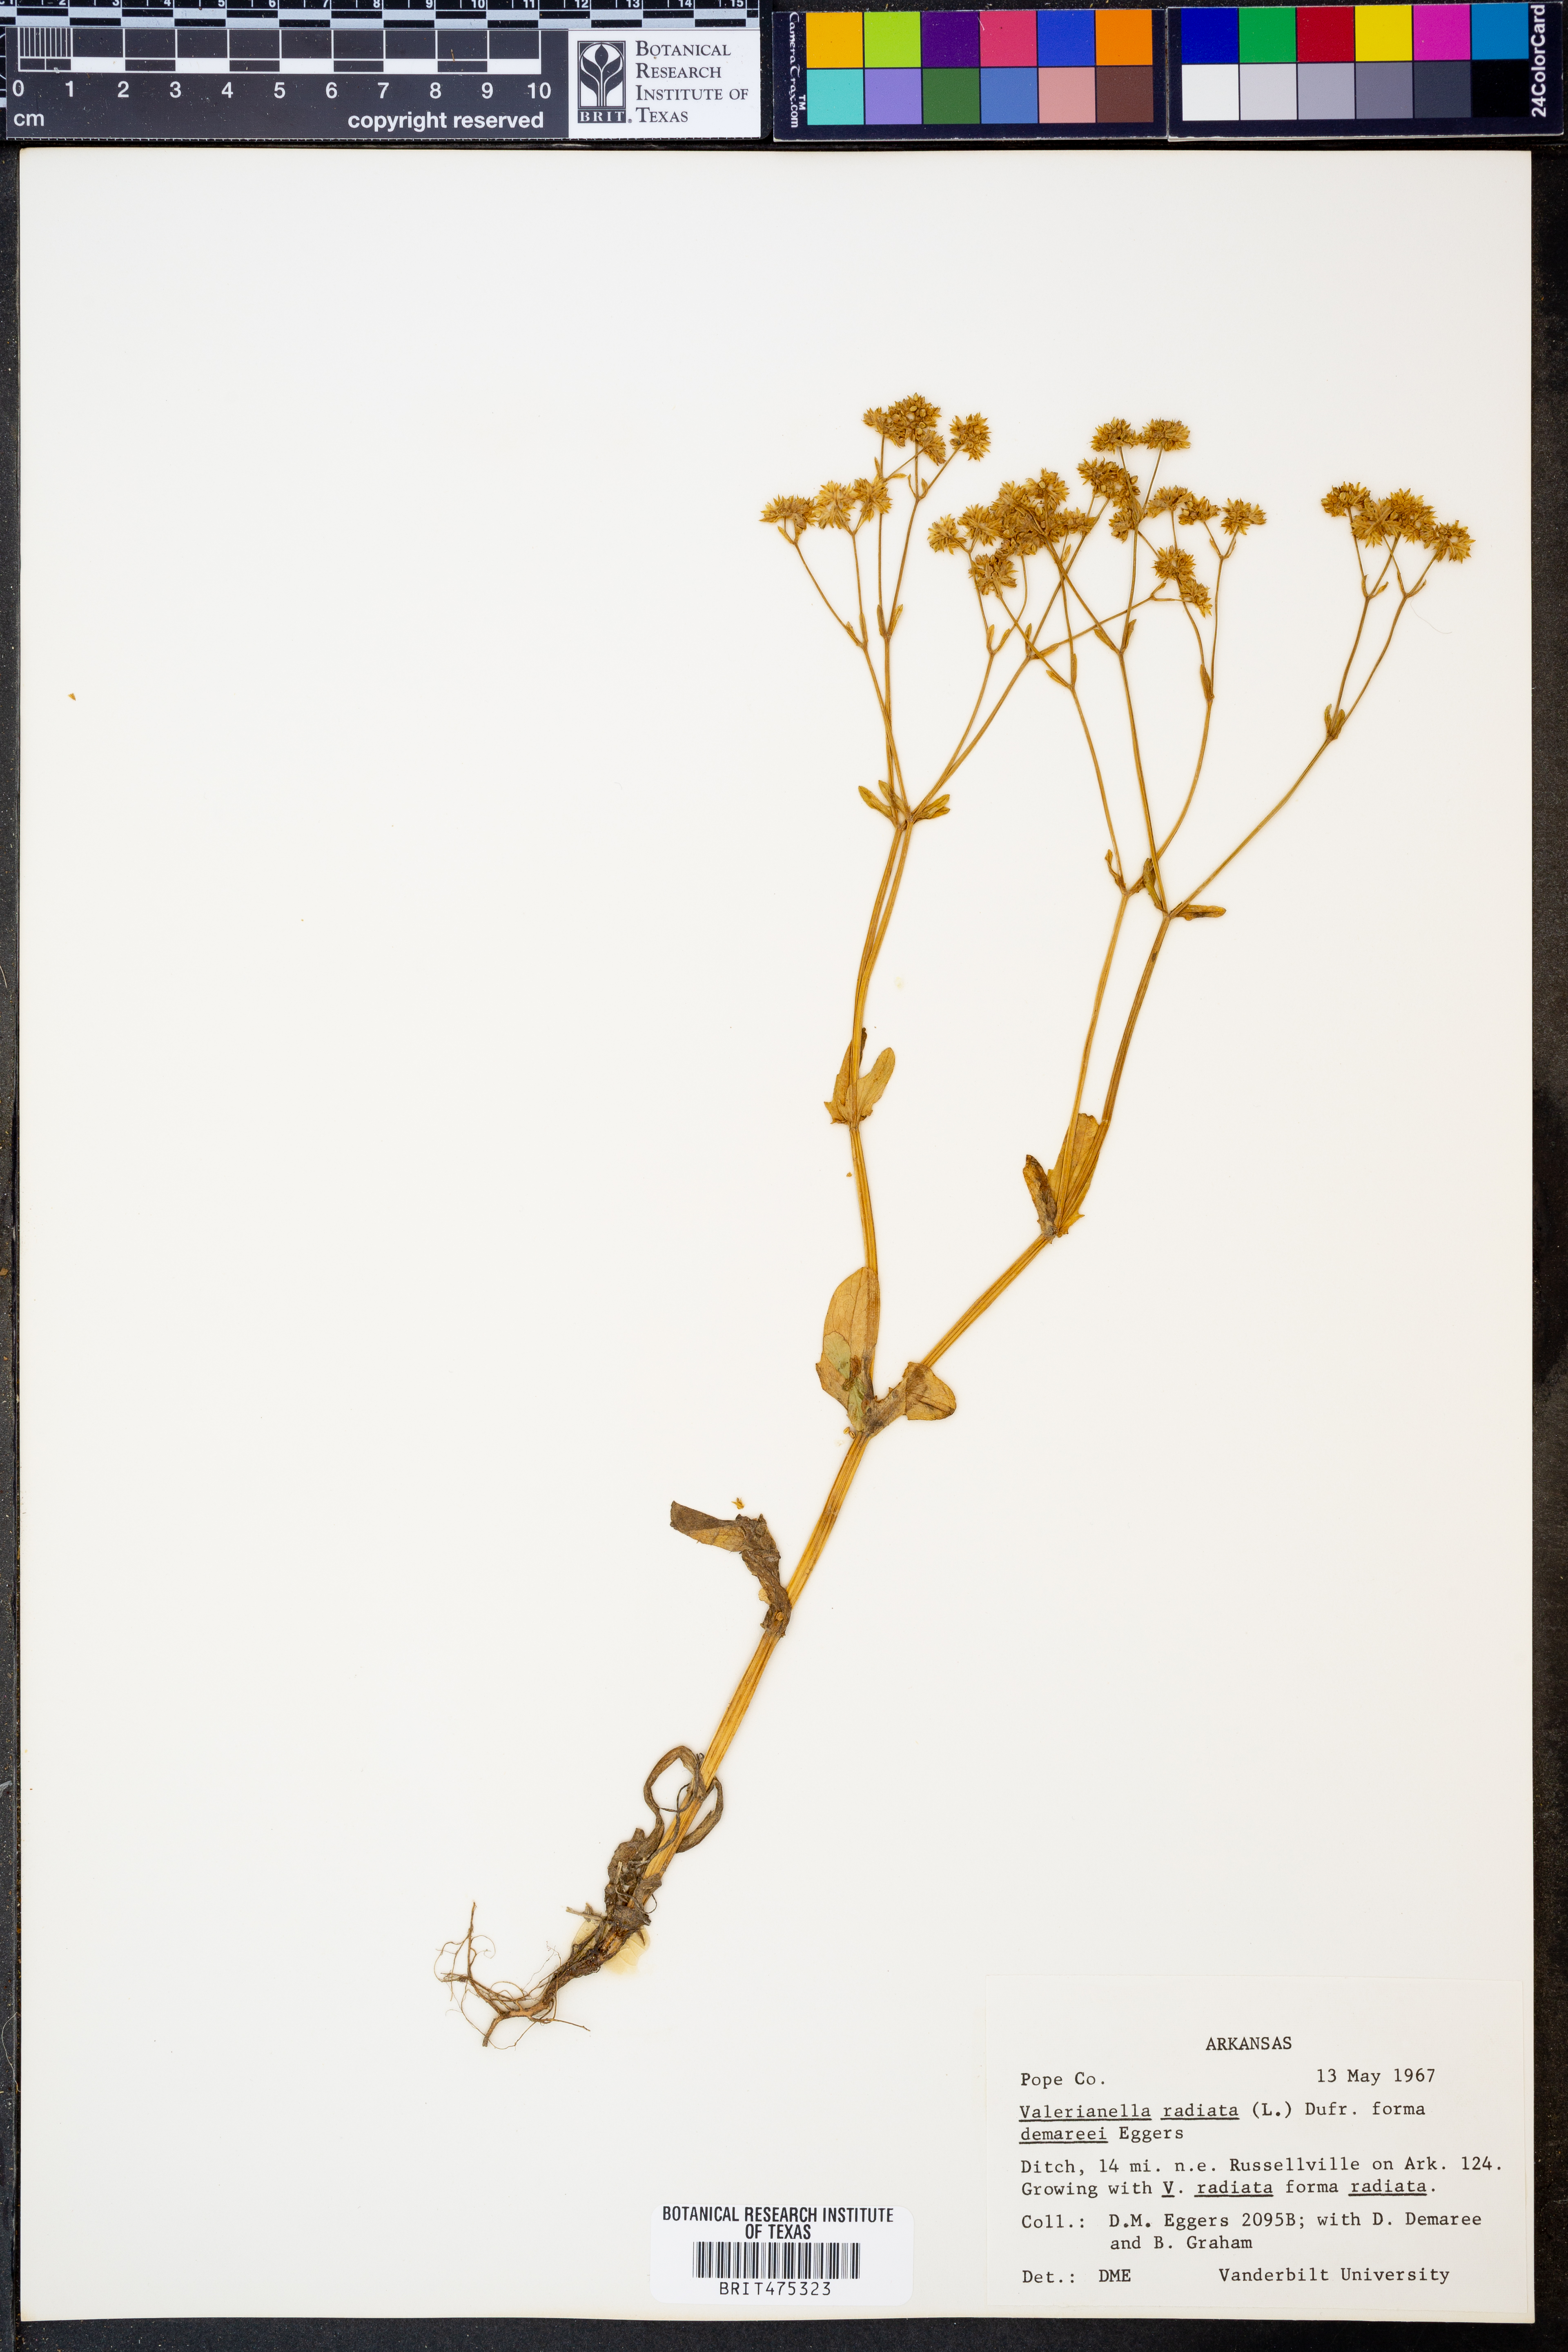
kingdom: Plantae
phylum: Tracheophyta
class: Magnoliopsida
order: Dipsacales
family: Caprifoliaceae
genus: Valerianella
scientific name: Valerianella radiata
